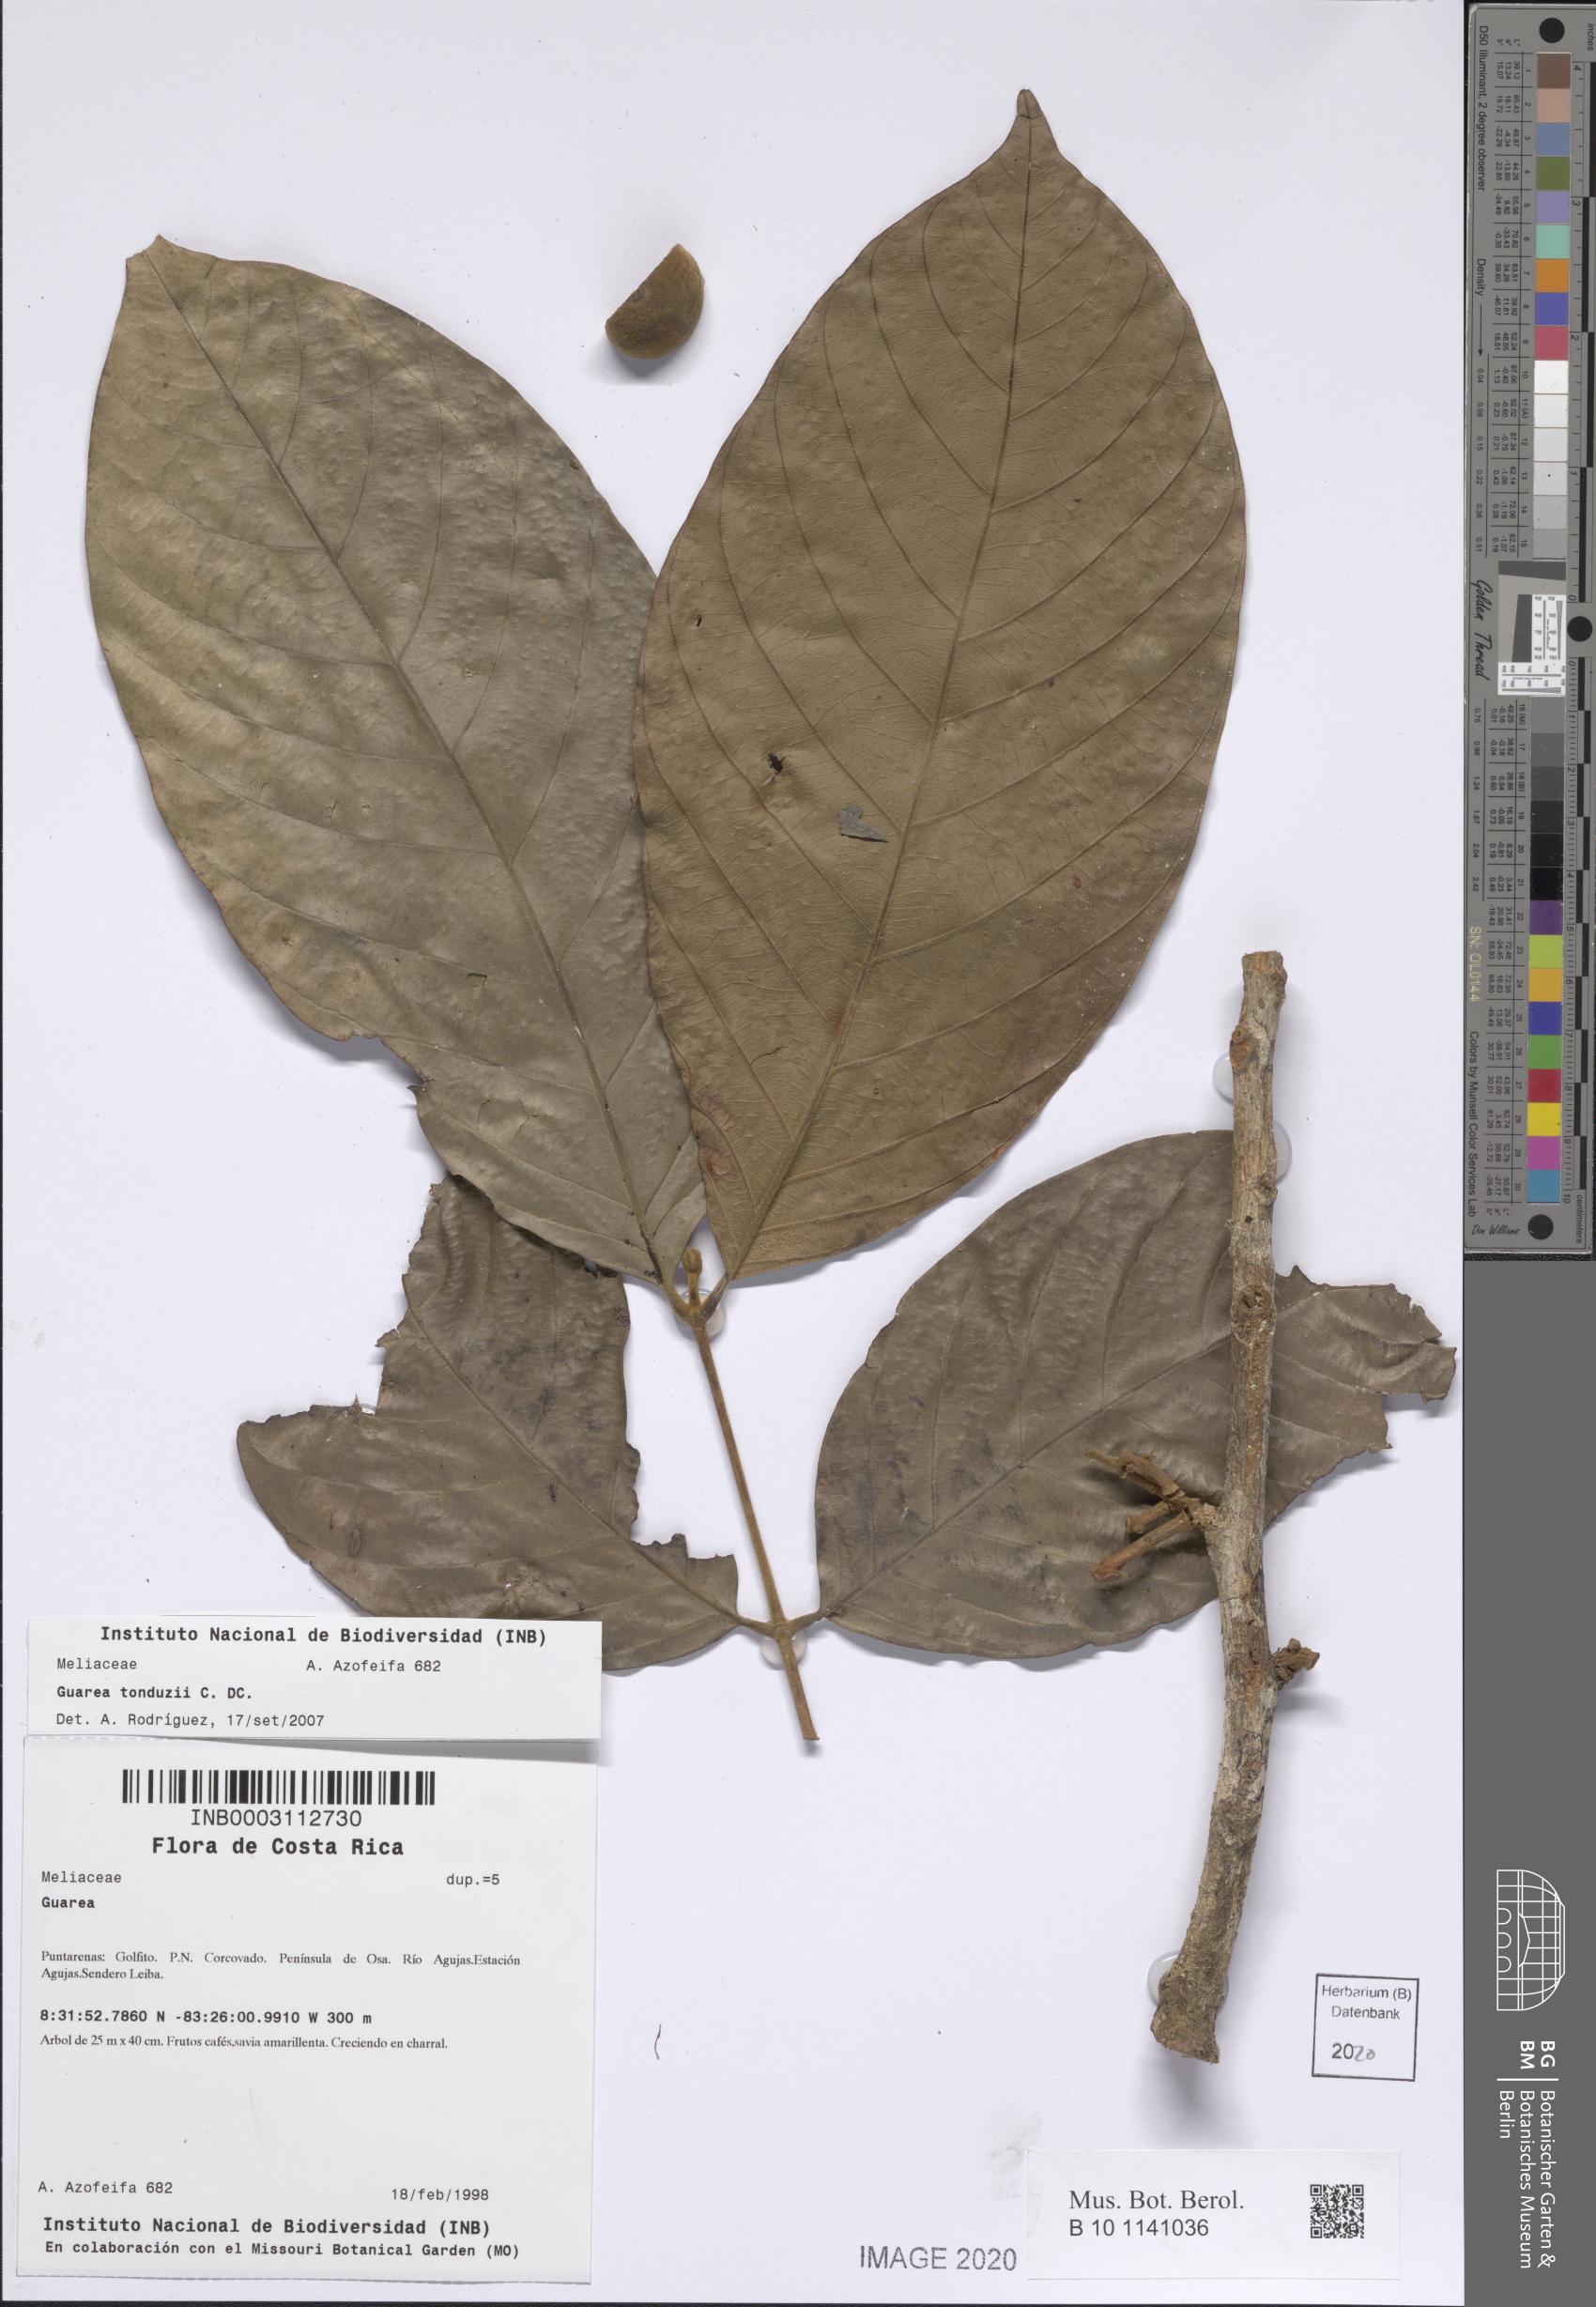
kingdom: Plantae
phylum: Tracheophyta
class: Magnoliopsida
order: Sapindales
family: Meliaceae
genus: Guarea
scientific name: Guarea tonduzii
